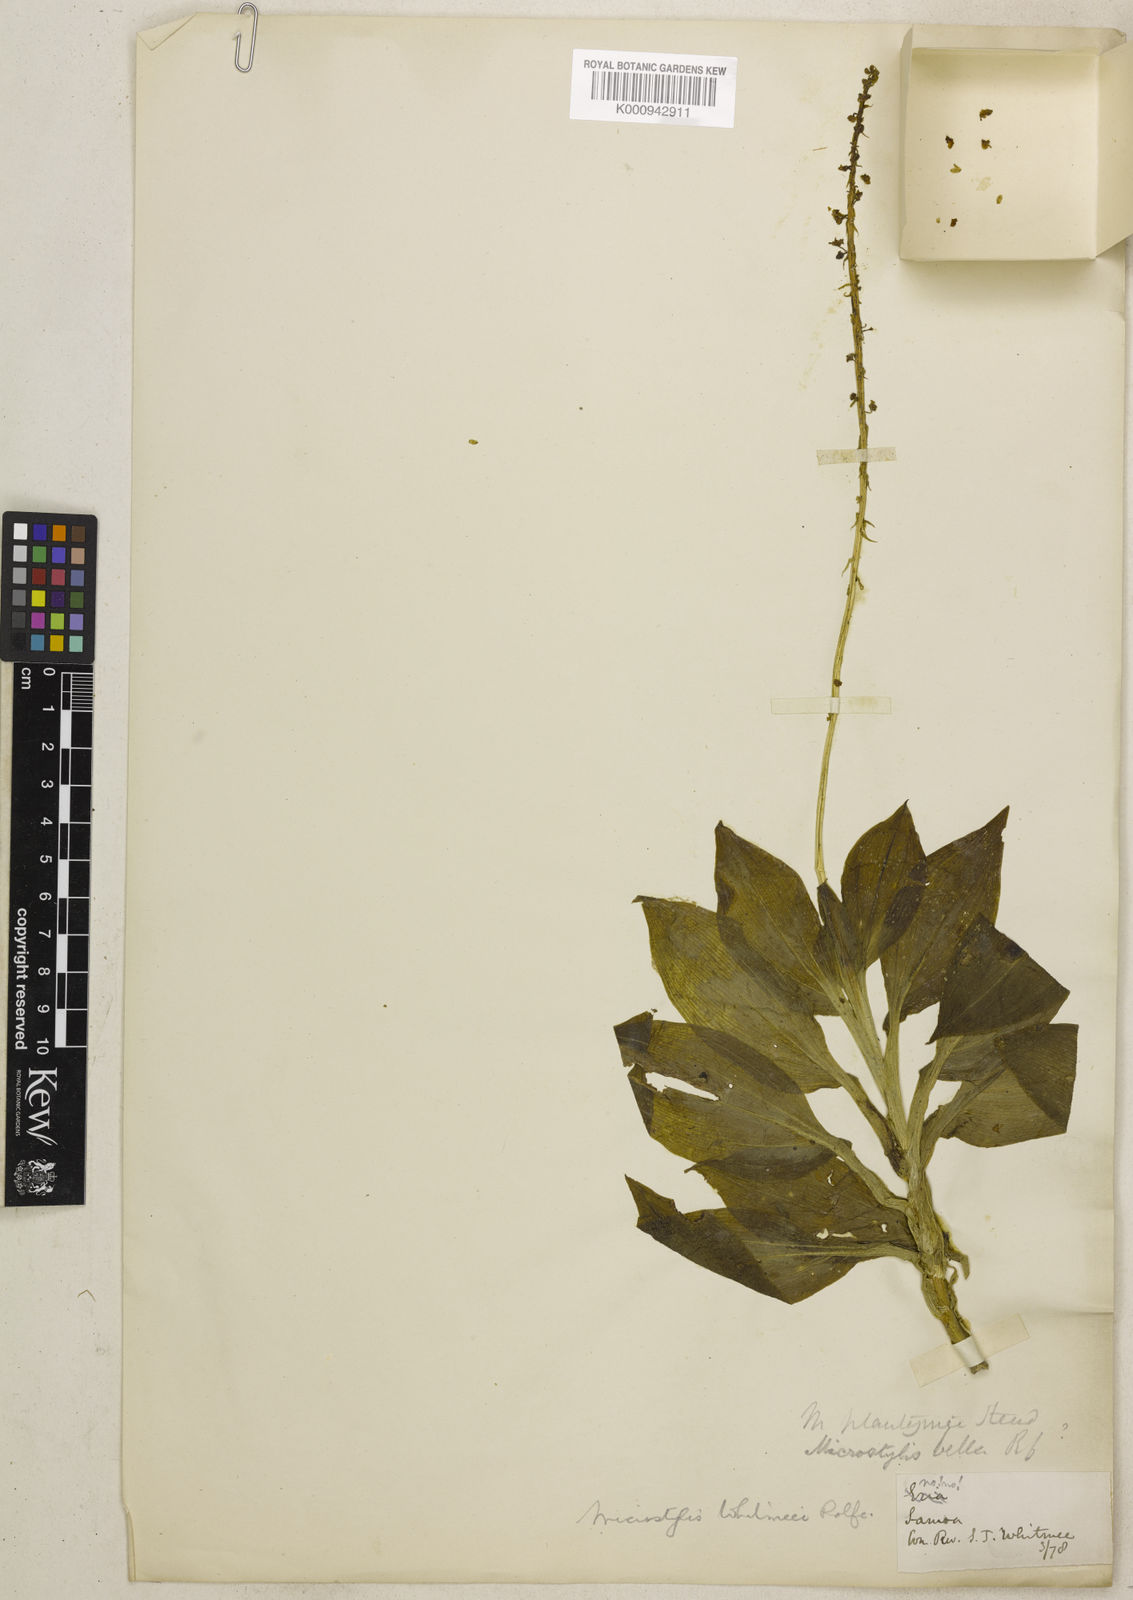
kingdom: Plantae
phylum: Tracheophyta
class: Liliopsida
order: Asparagales
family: Orchidaceae
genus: Crepidium
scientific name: Crepidium reineckeanum
